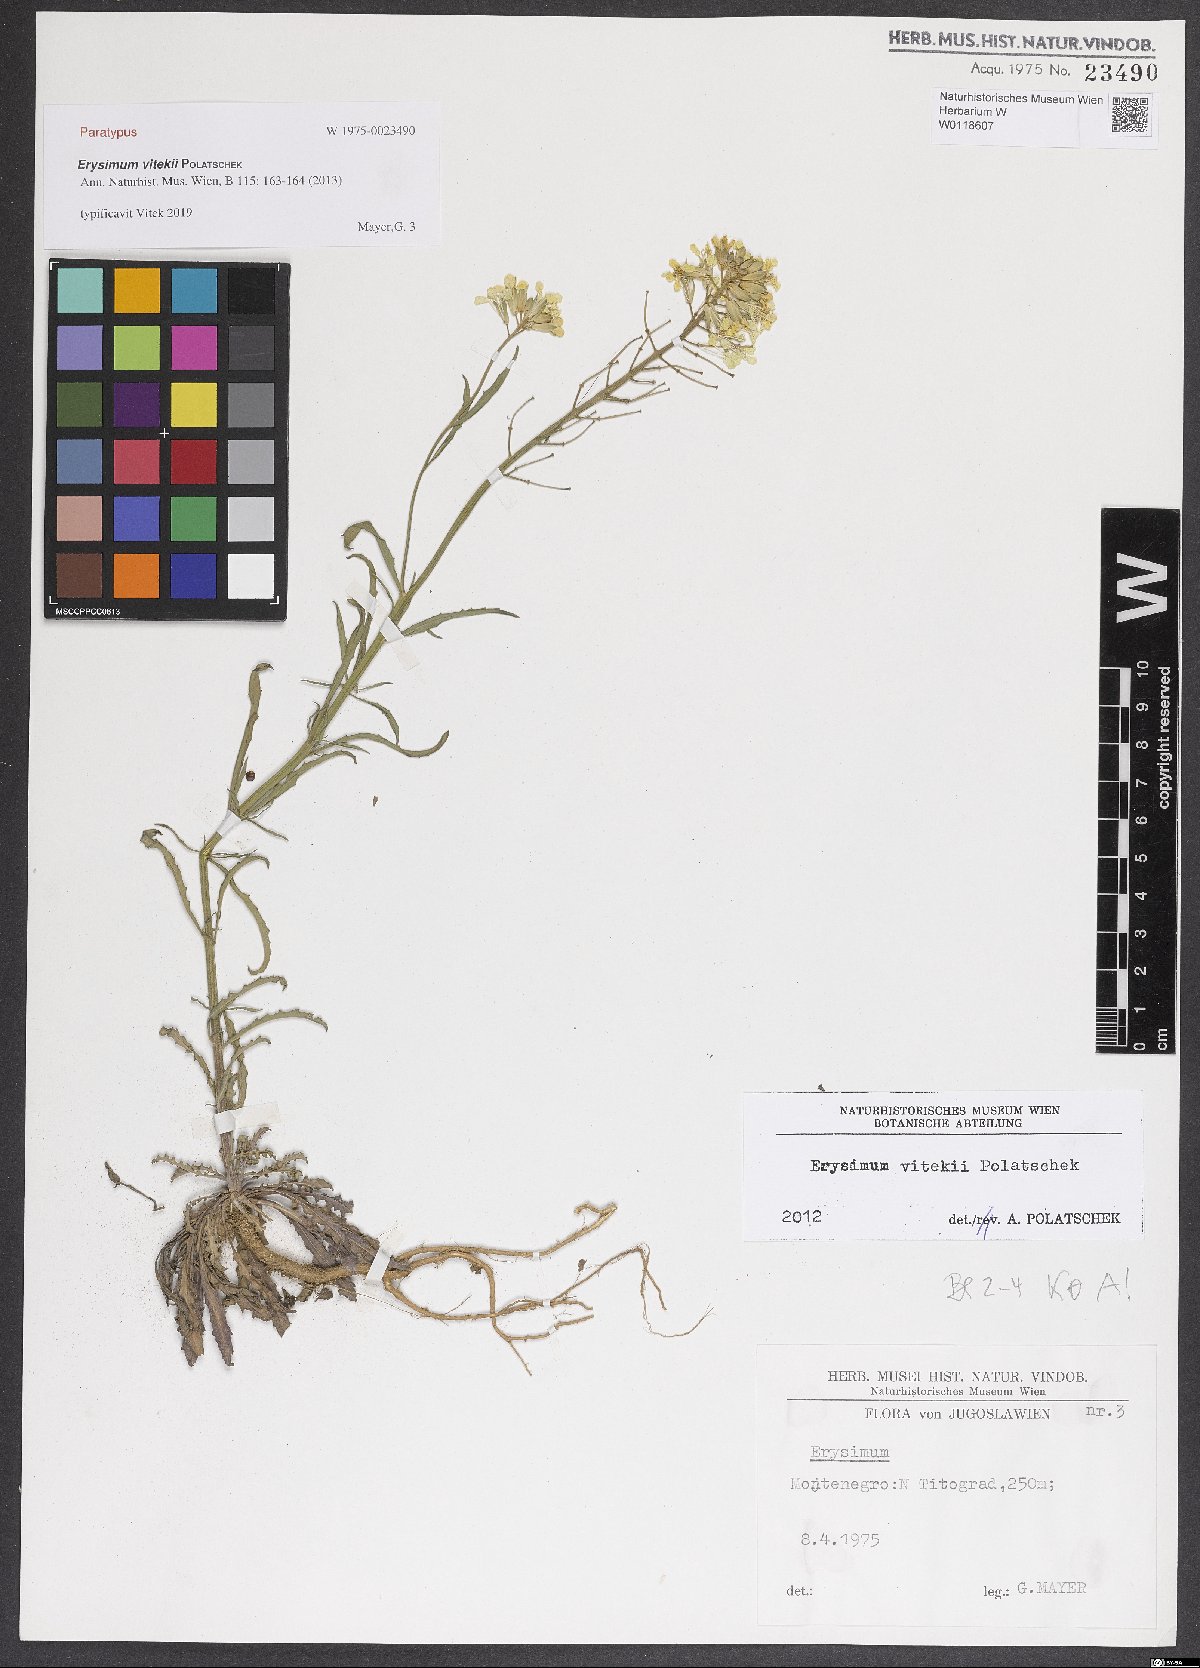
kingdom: Plantae
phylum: Tracheophyta
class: Magnoliopsida
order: Brassicales
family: Brassicaceae
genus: Erysimum
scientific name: Erysimum vitekii
